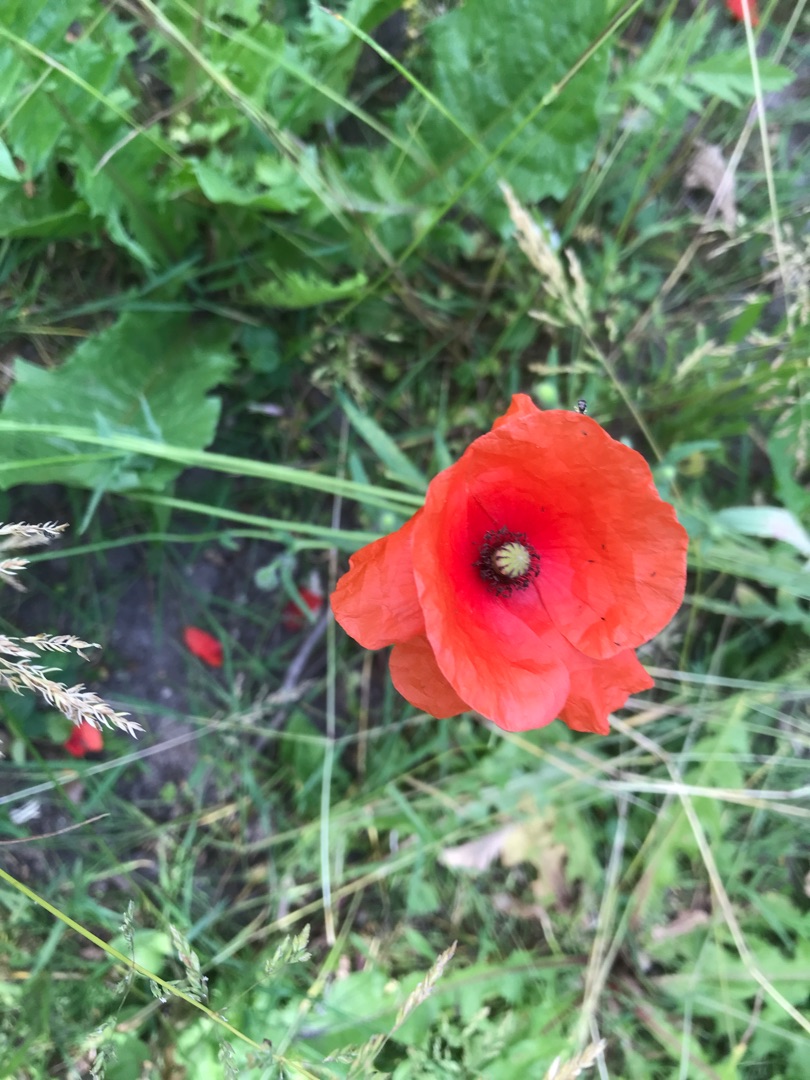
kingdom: Plantae
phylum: Tracheophyta
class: Magnoliopsida
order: Ranunculales
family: Papaveraceae
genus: Papaver
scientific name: Papaver rhoeas
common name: Korn-valmue
